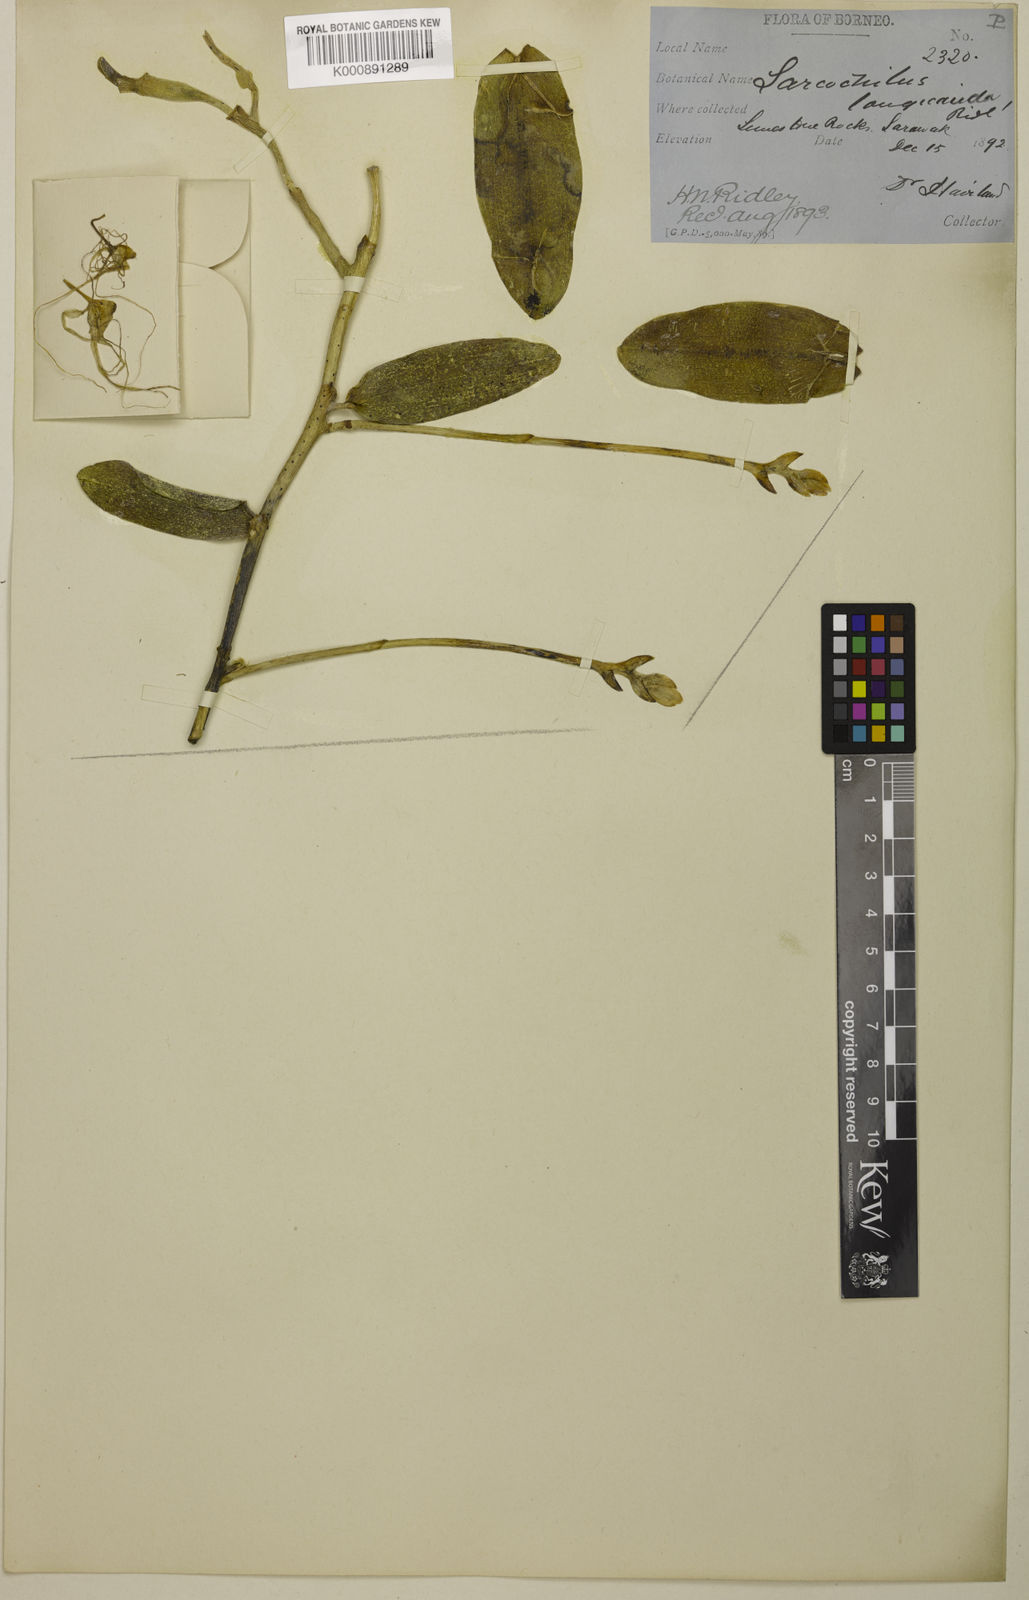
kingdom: Plantae
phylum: Tracheophyta
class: Liliopsida
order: Asparagales
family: Orchidaceae
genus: Thrixspermum
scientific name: Thrixspermum longicauda
